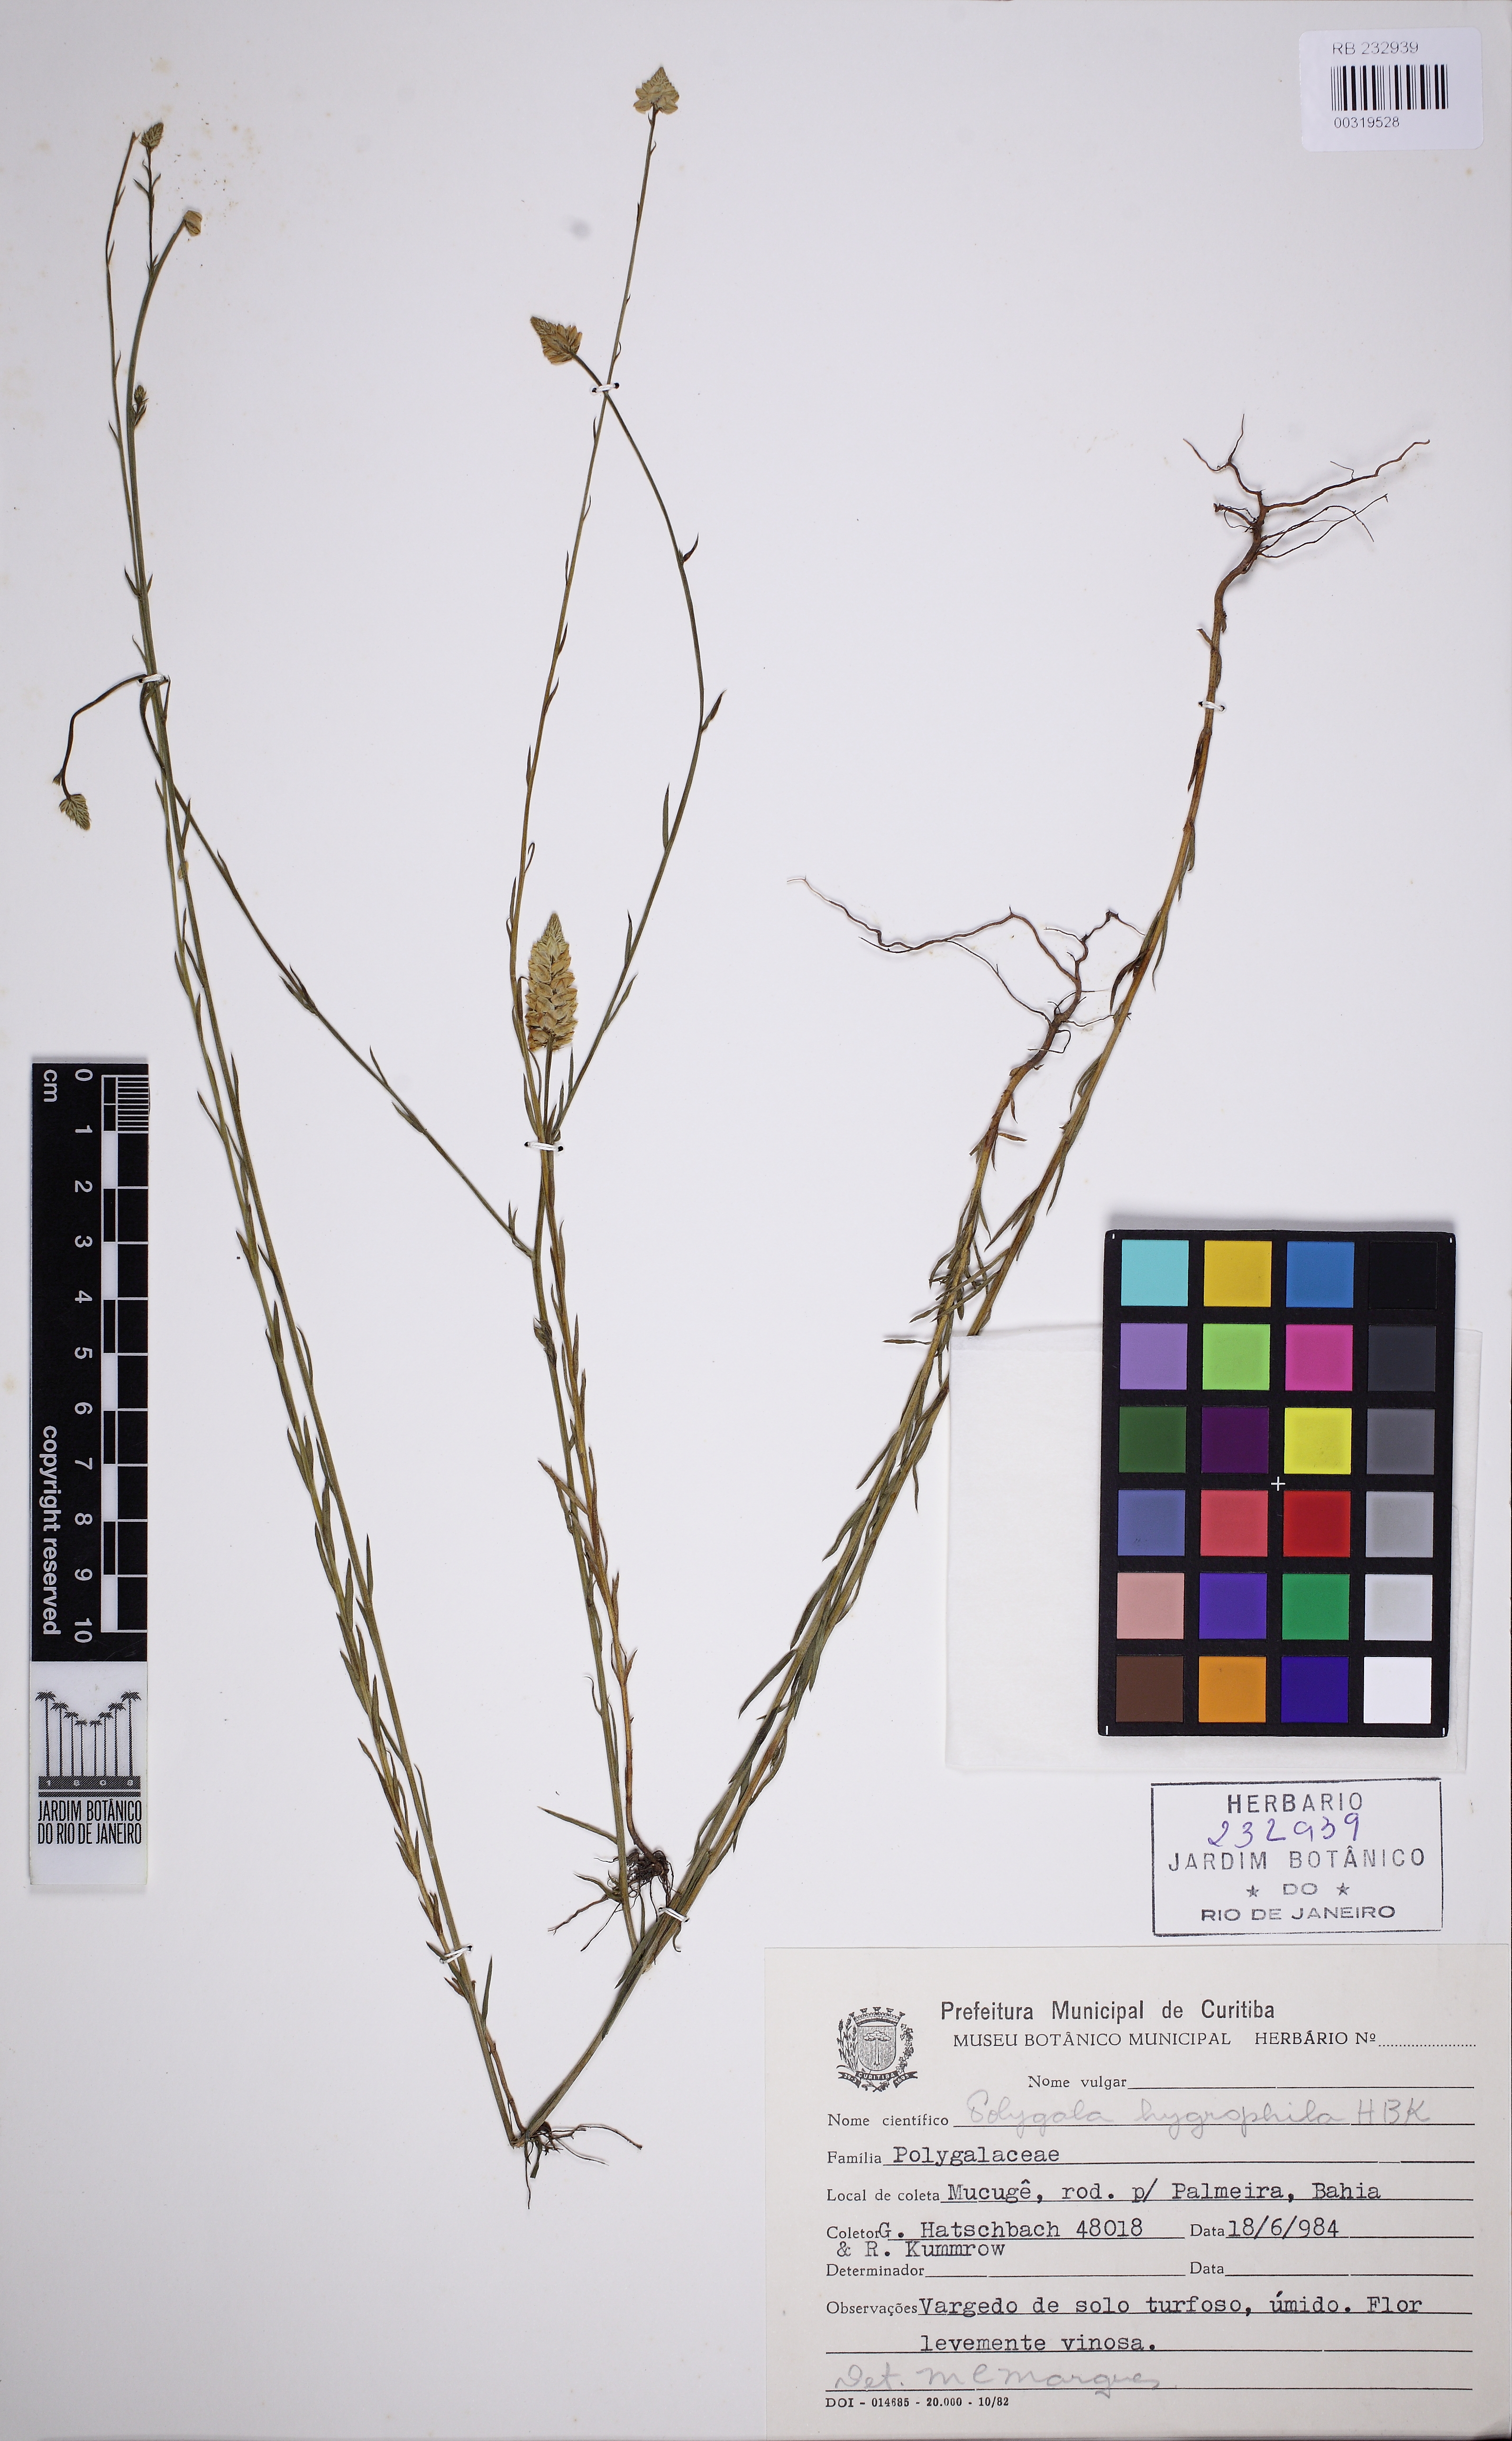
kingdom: Plantae
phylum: Tracheophyta
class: Magnoliopsida
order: Fabales
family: Polygalaceae
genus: Polygala
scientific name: Polygala hygrophila
